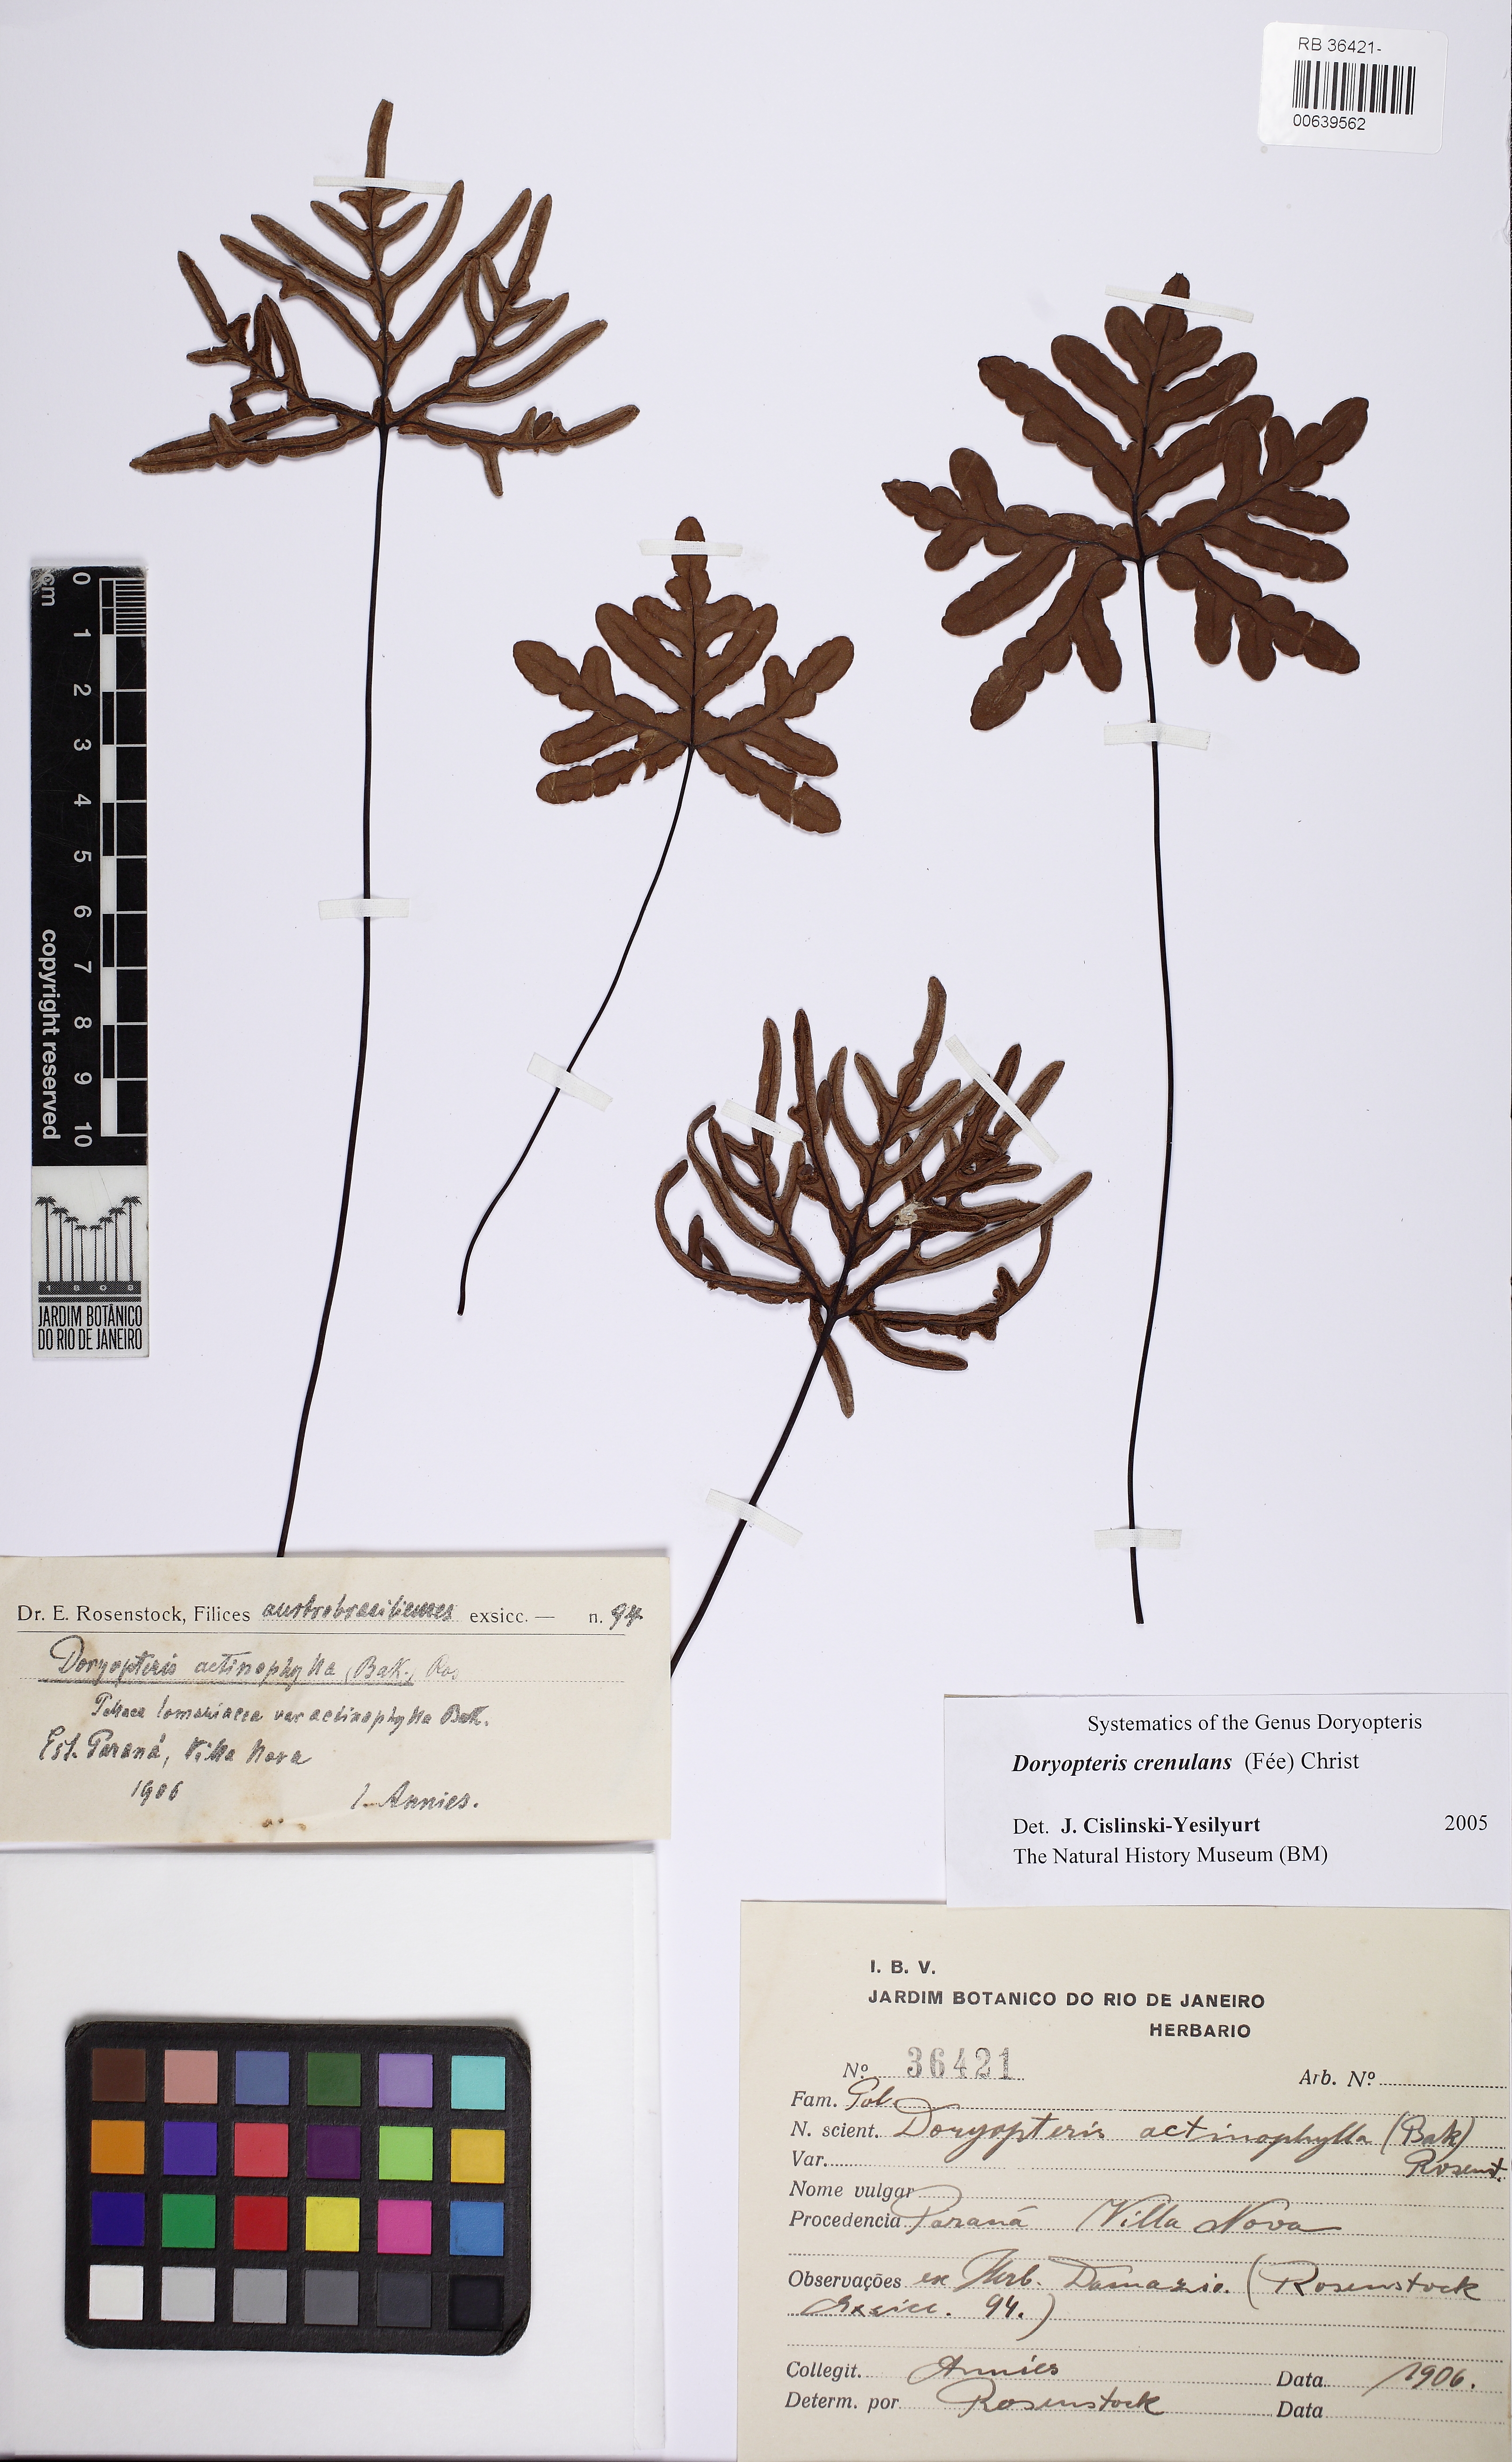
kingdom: Plantae
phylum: Tracheophyta
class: Polypodiopsida
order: Polypodiales
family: Pteridaceae
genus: Lytoneuron
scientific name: Lytoneuron crenulans
